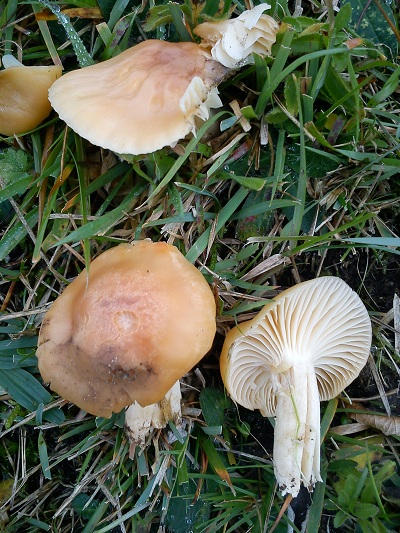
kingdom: Fungi
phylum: Basidiomycota
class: Agaricomycetes
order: Agaricales
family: Hygrophoraceae
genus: Cuphophyllus
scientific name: Cuphophyllus pratensis
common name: eng-vokshat
